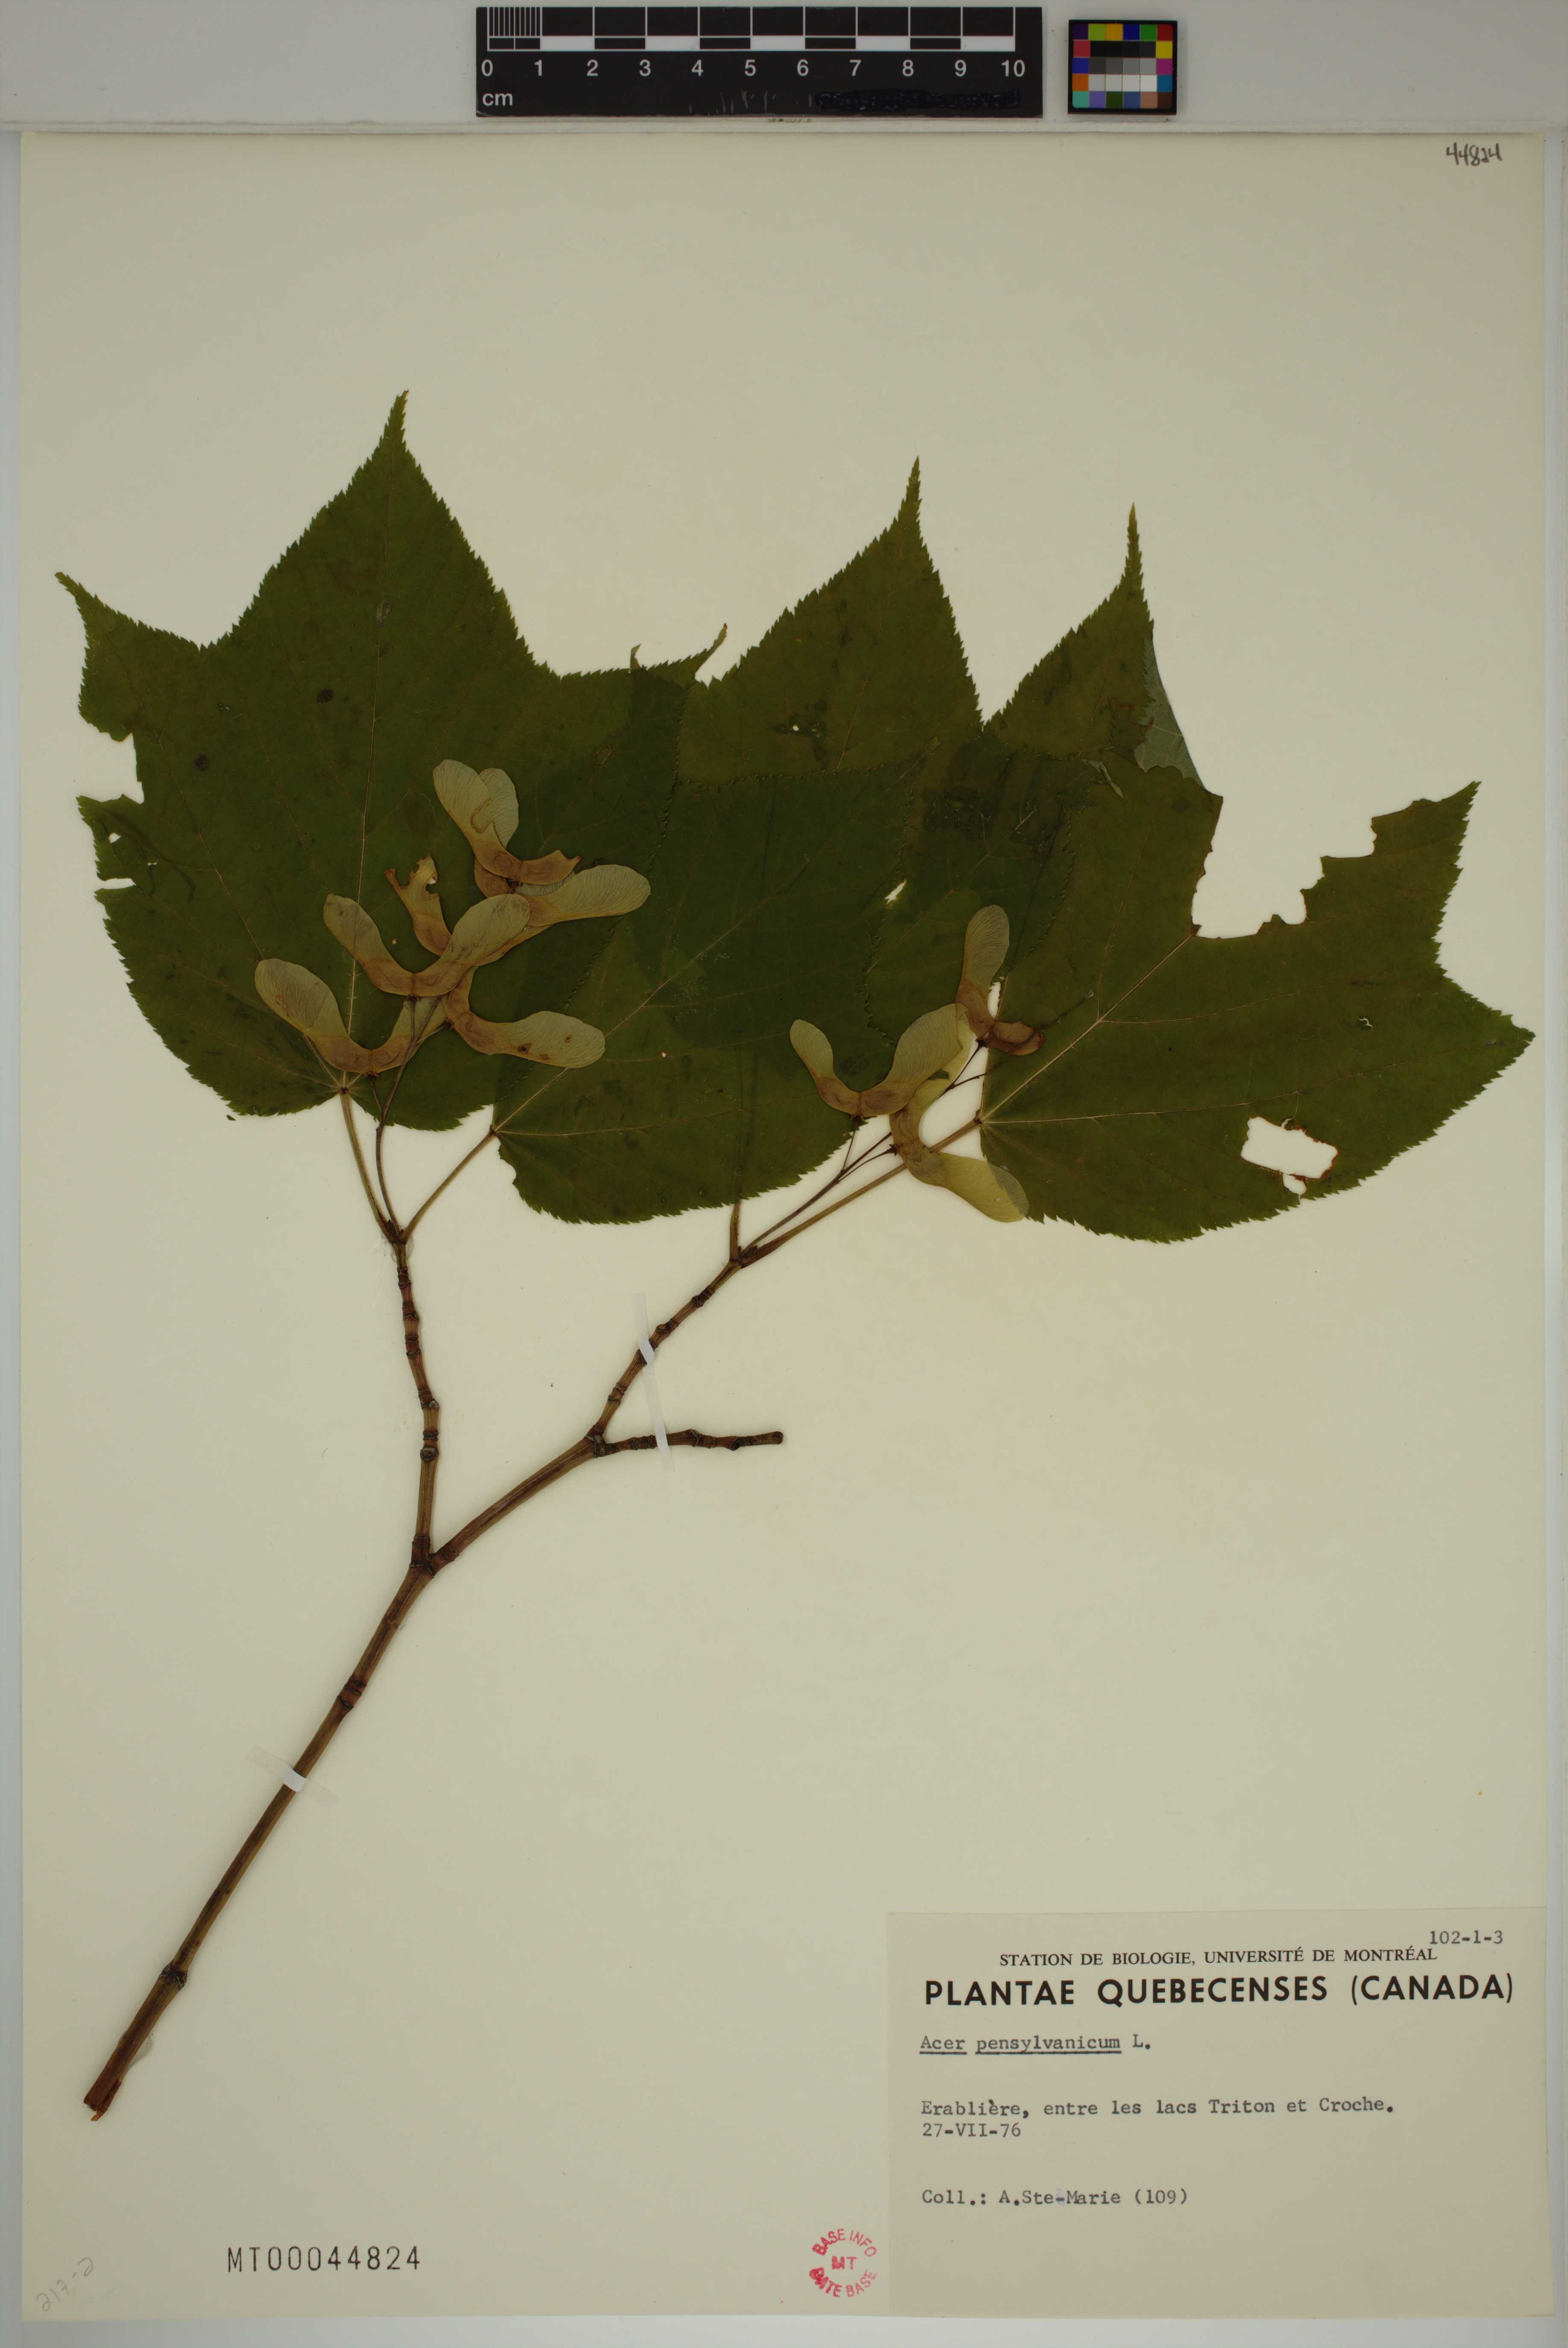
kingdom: Plantae
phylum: Tracheophyta
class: Magnoliopsida
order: Sapindales
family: Sapindaceae
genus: Acer
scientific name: Acer pensylvanicum
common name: Moosewood
